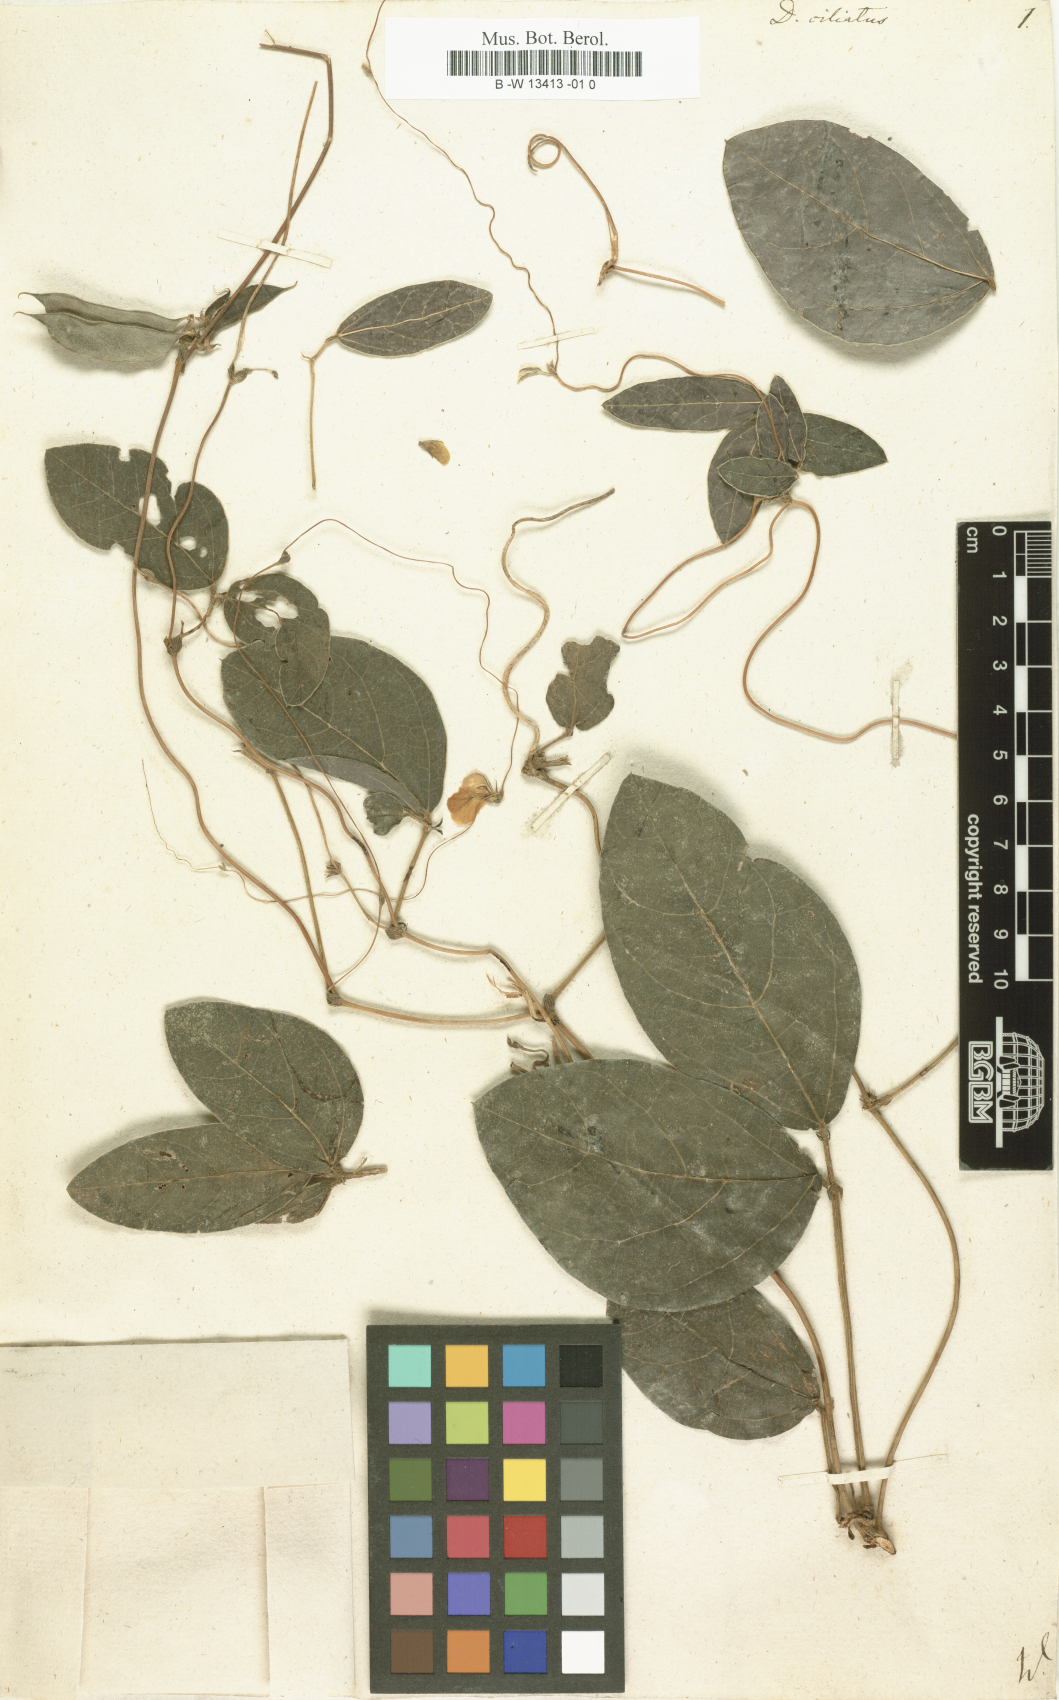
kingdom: Plantae
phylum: Tracheophyta
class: Magnoliopsida
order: Fabales
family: Fabaceae
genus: Macrotyloma
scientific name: Macrotyloma ciliatum
